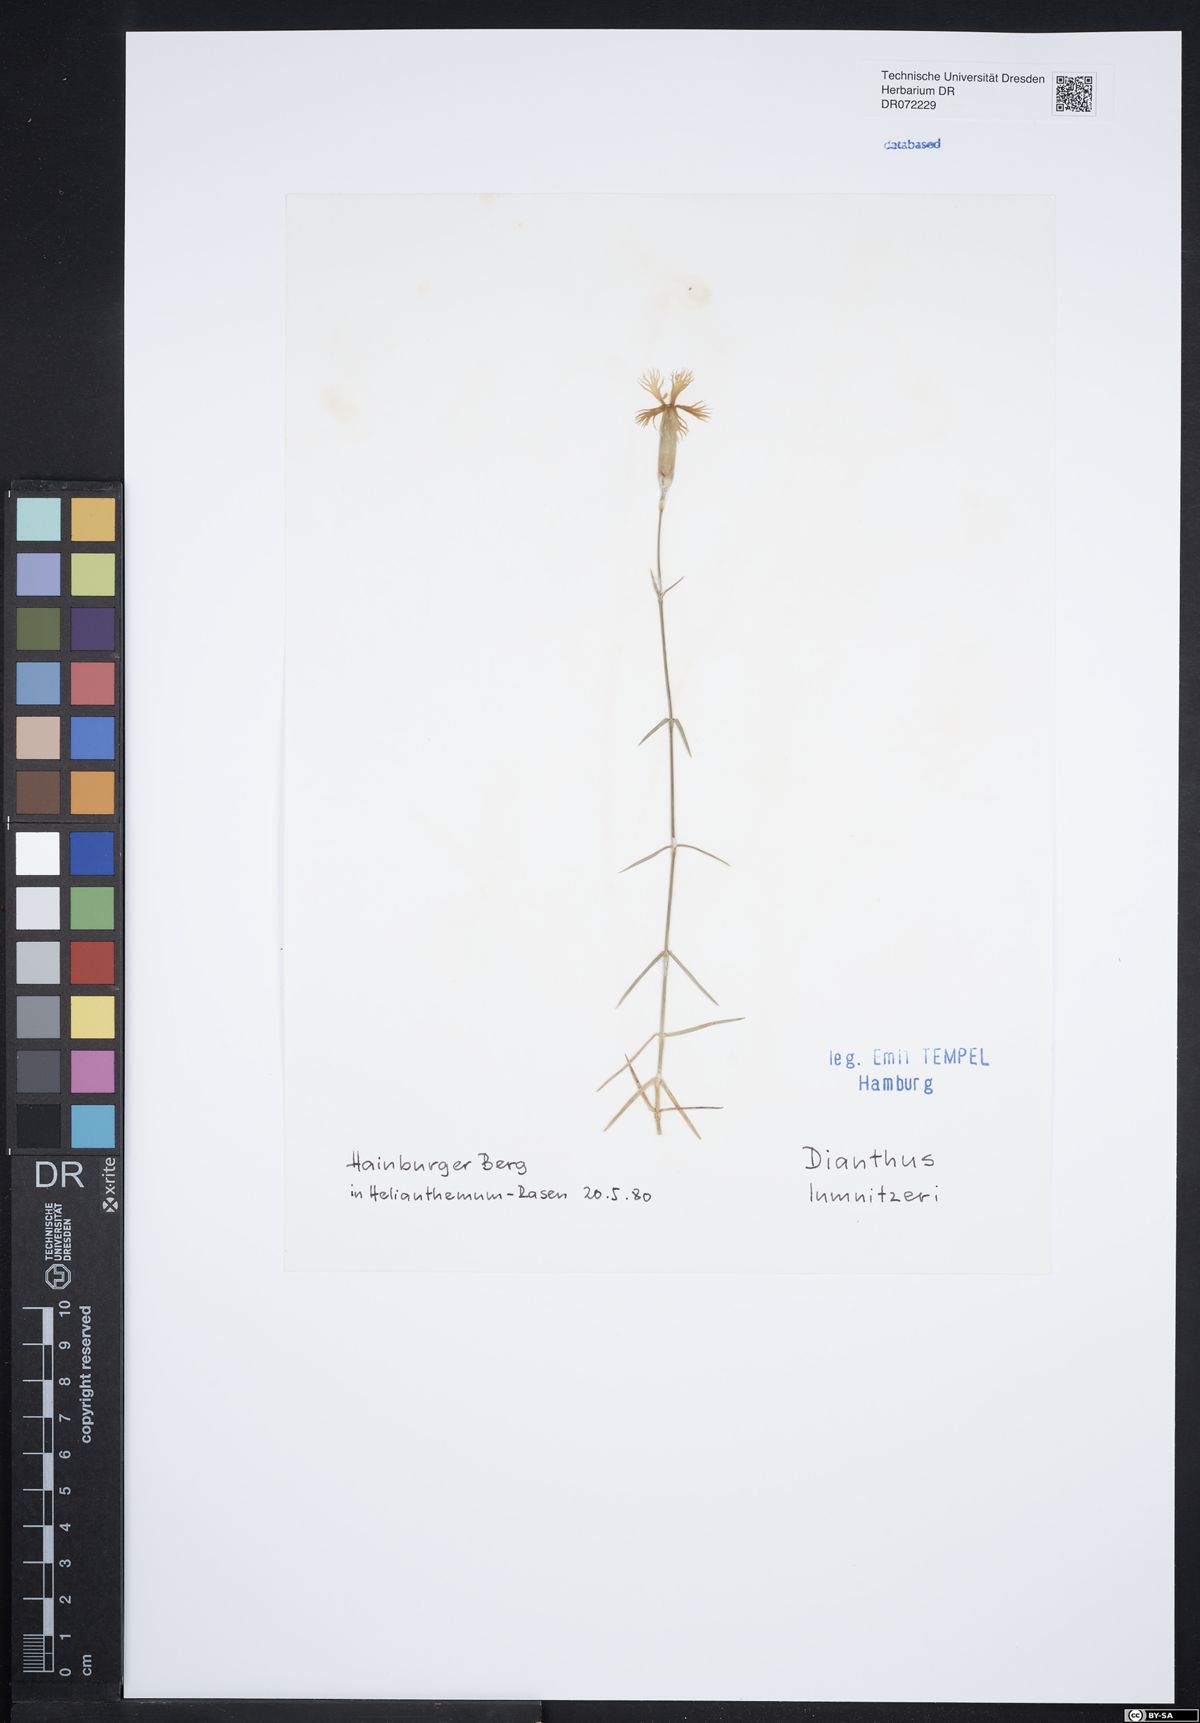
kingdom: Plantae
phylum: Tracheophyta
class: Magnoliopsida
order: Caryophyllales
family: Caryophyllaceae
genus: Dianthus
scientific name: Dianthus praecox
